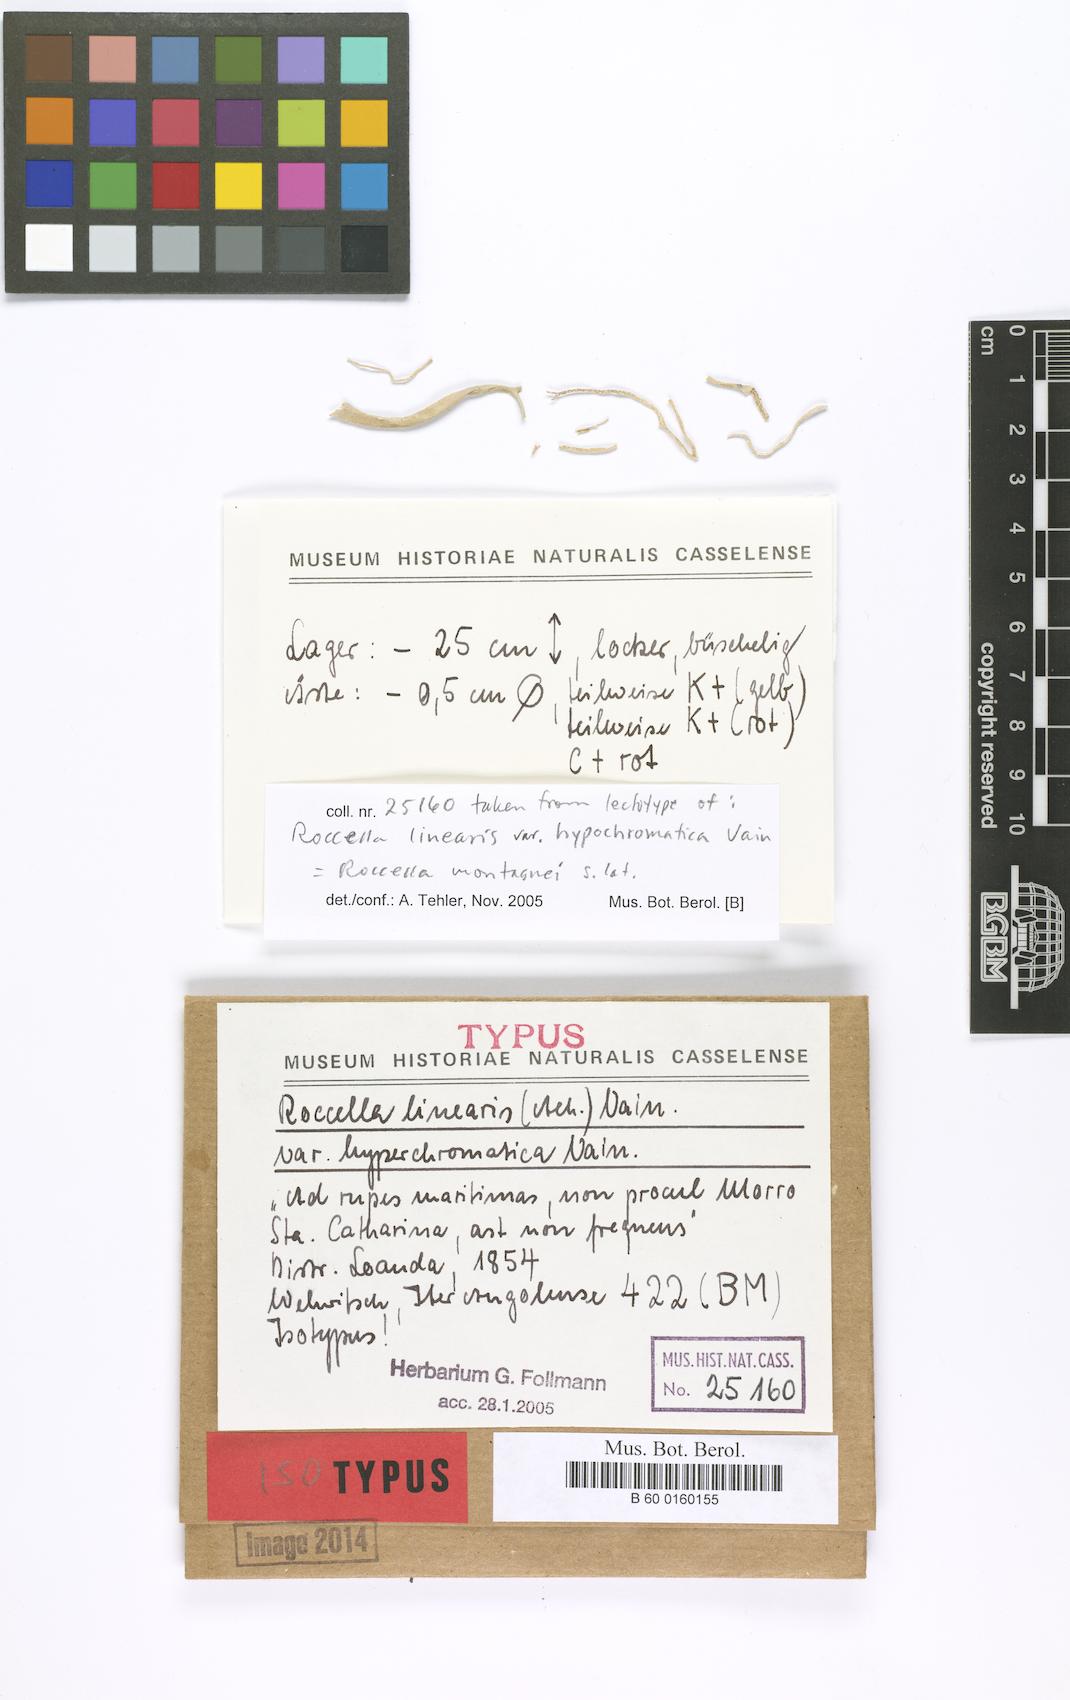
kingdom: Fungi
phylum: Ascomycota
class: Arthoniomycetes
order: Arthoniales
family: Roccellaceae
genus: Roccella
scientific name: Roccella linearis
